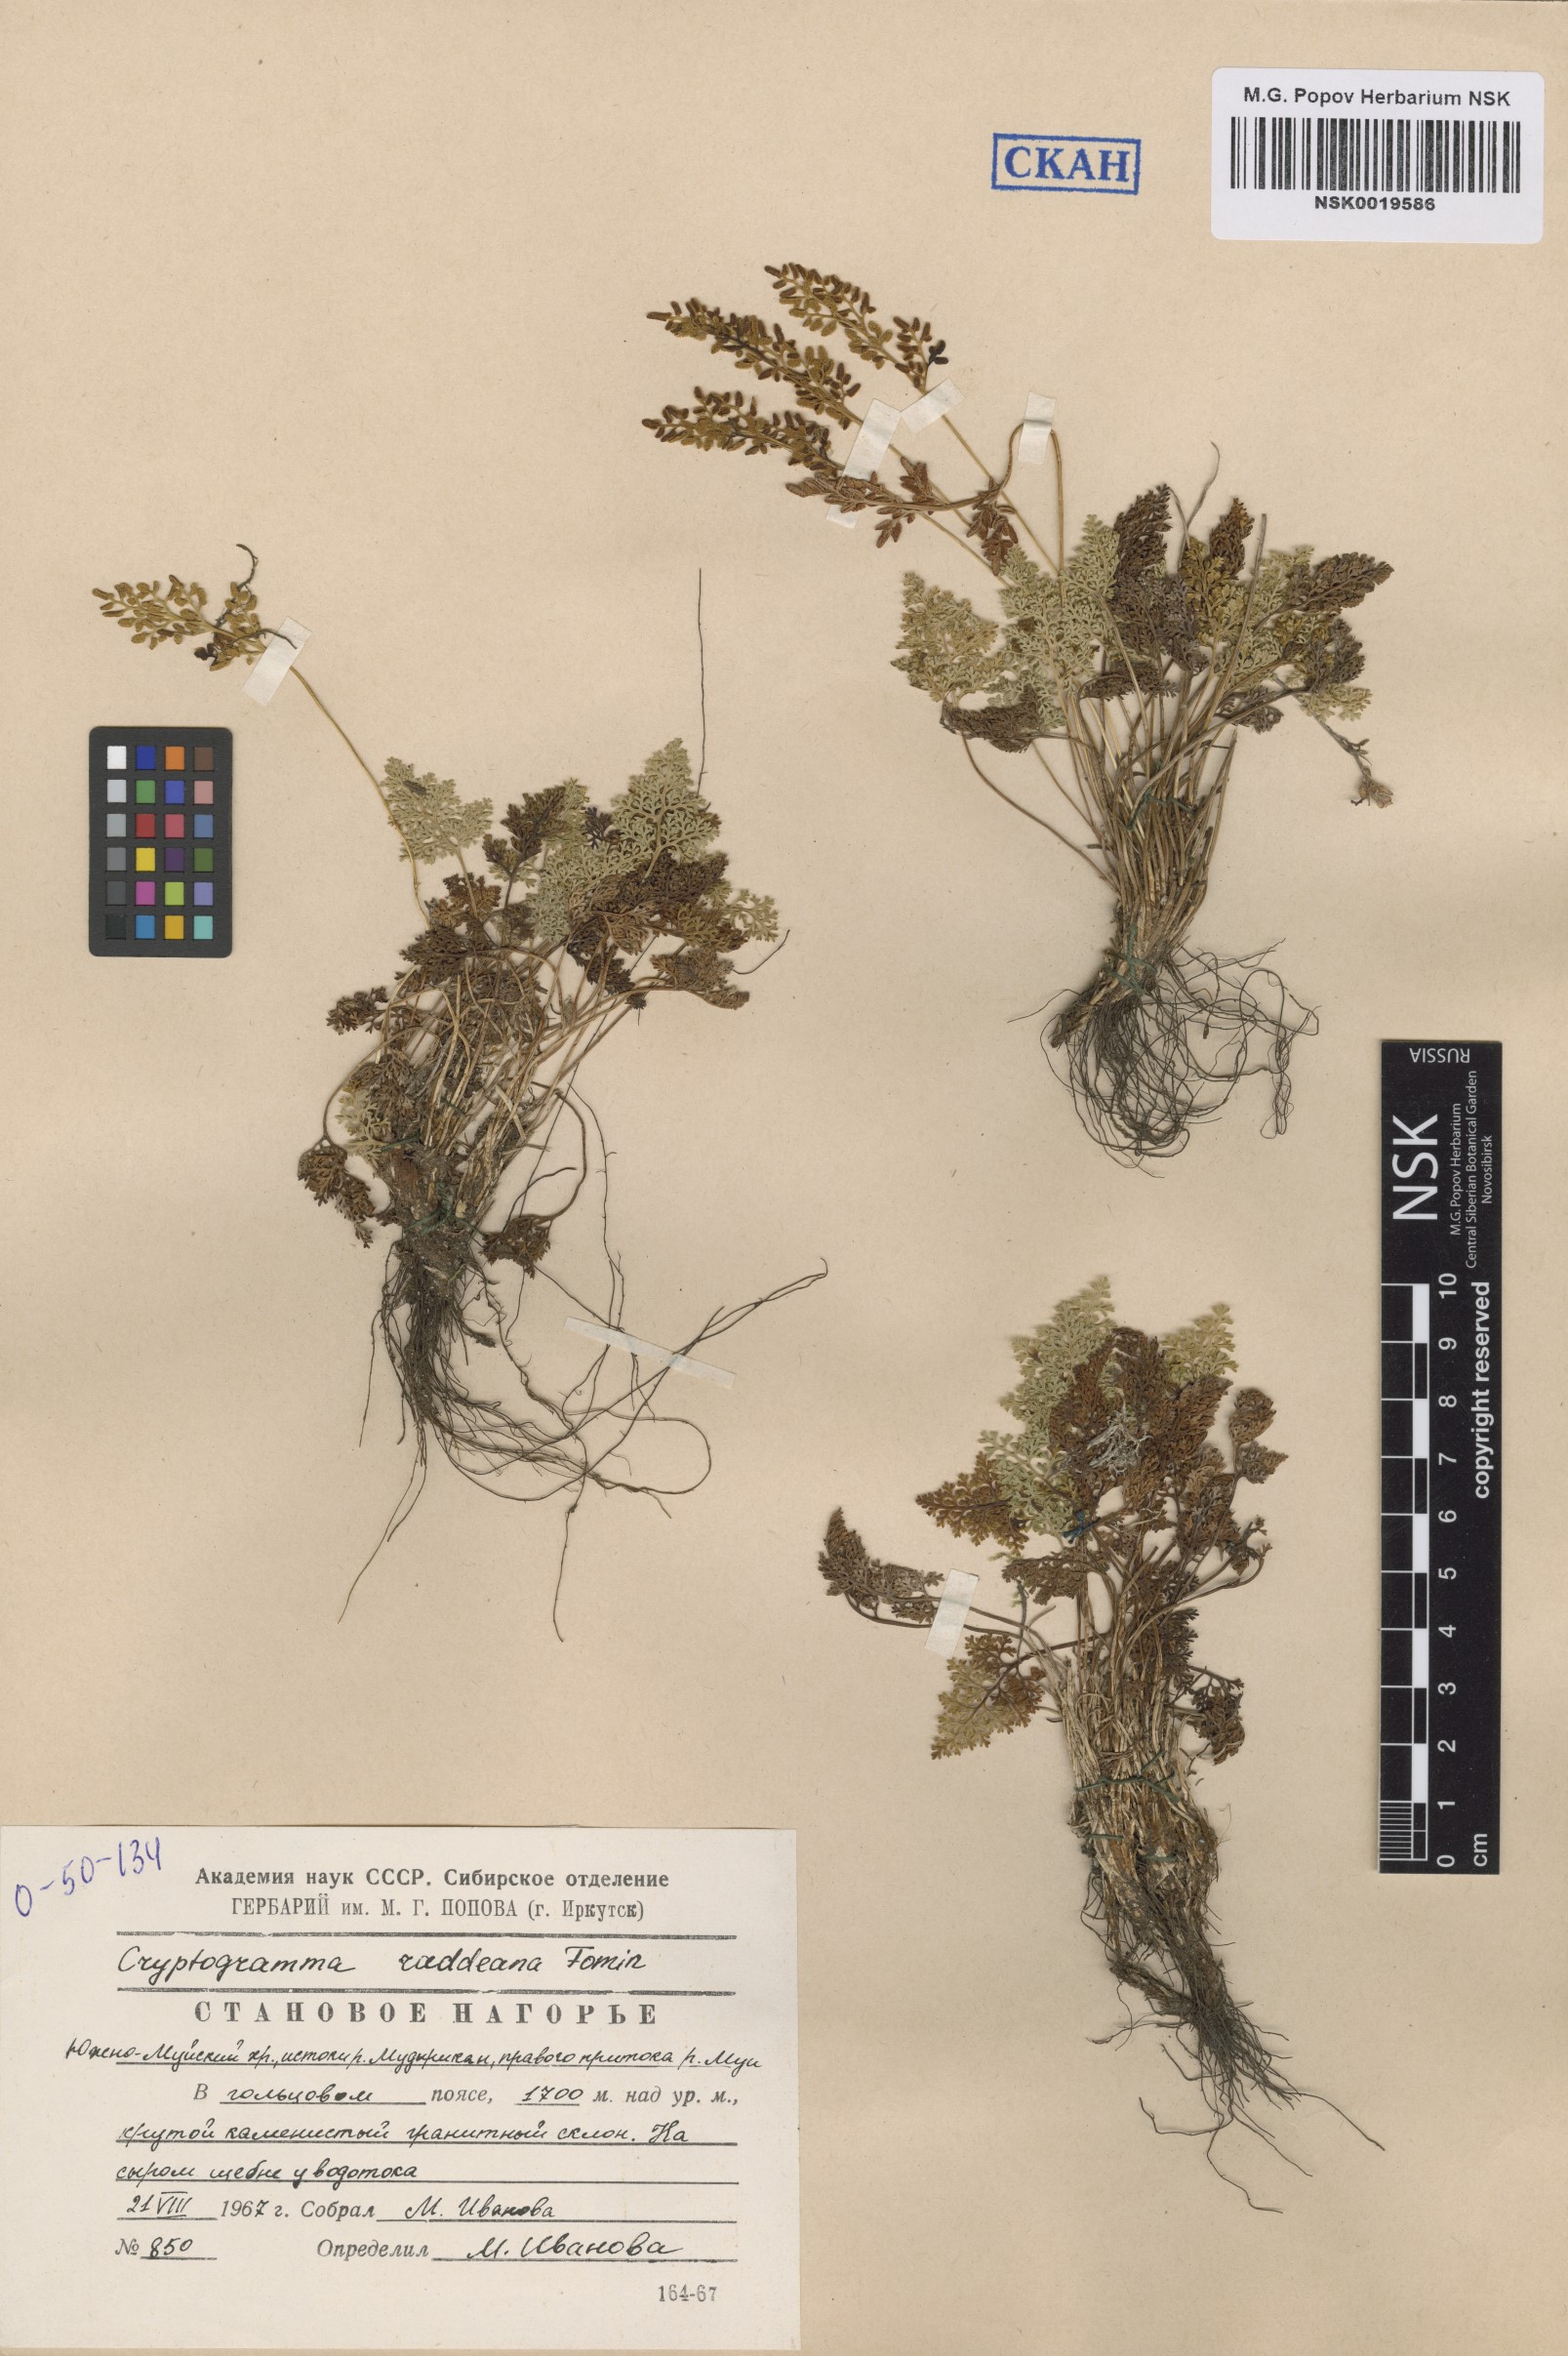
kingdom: Plantae
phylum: Tracheophyta
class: Polypodiopsida
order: Polypodiales
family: Pteridaceae
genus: Cryptogramma
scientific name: Cryptogramma brunoniana
